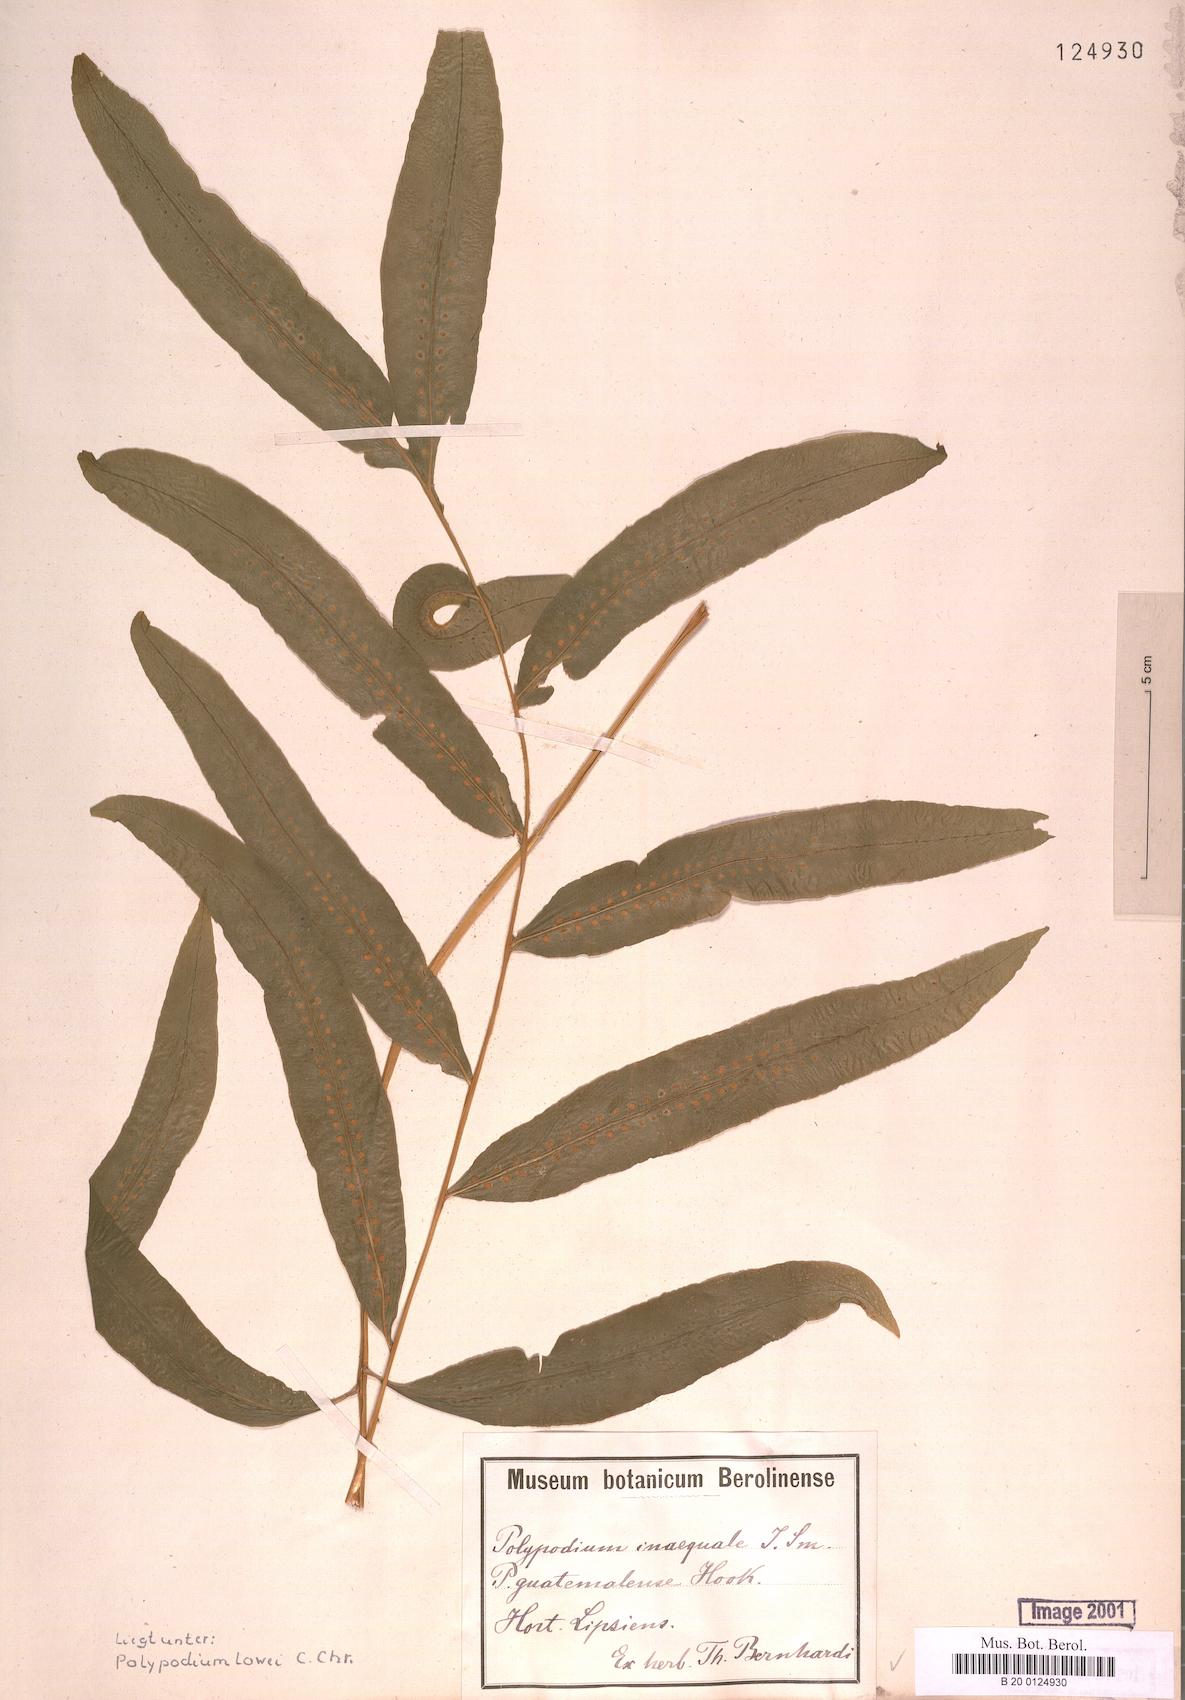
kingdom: Plantae
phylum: Tracheophyta
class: Polypodiopsida
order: Polypodiales
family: Polypodiaceae
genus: Polypodium
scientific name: Polypodium pleurosorum
